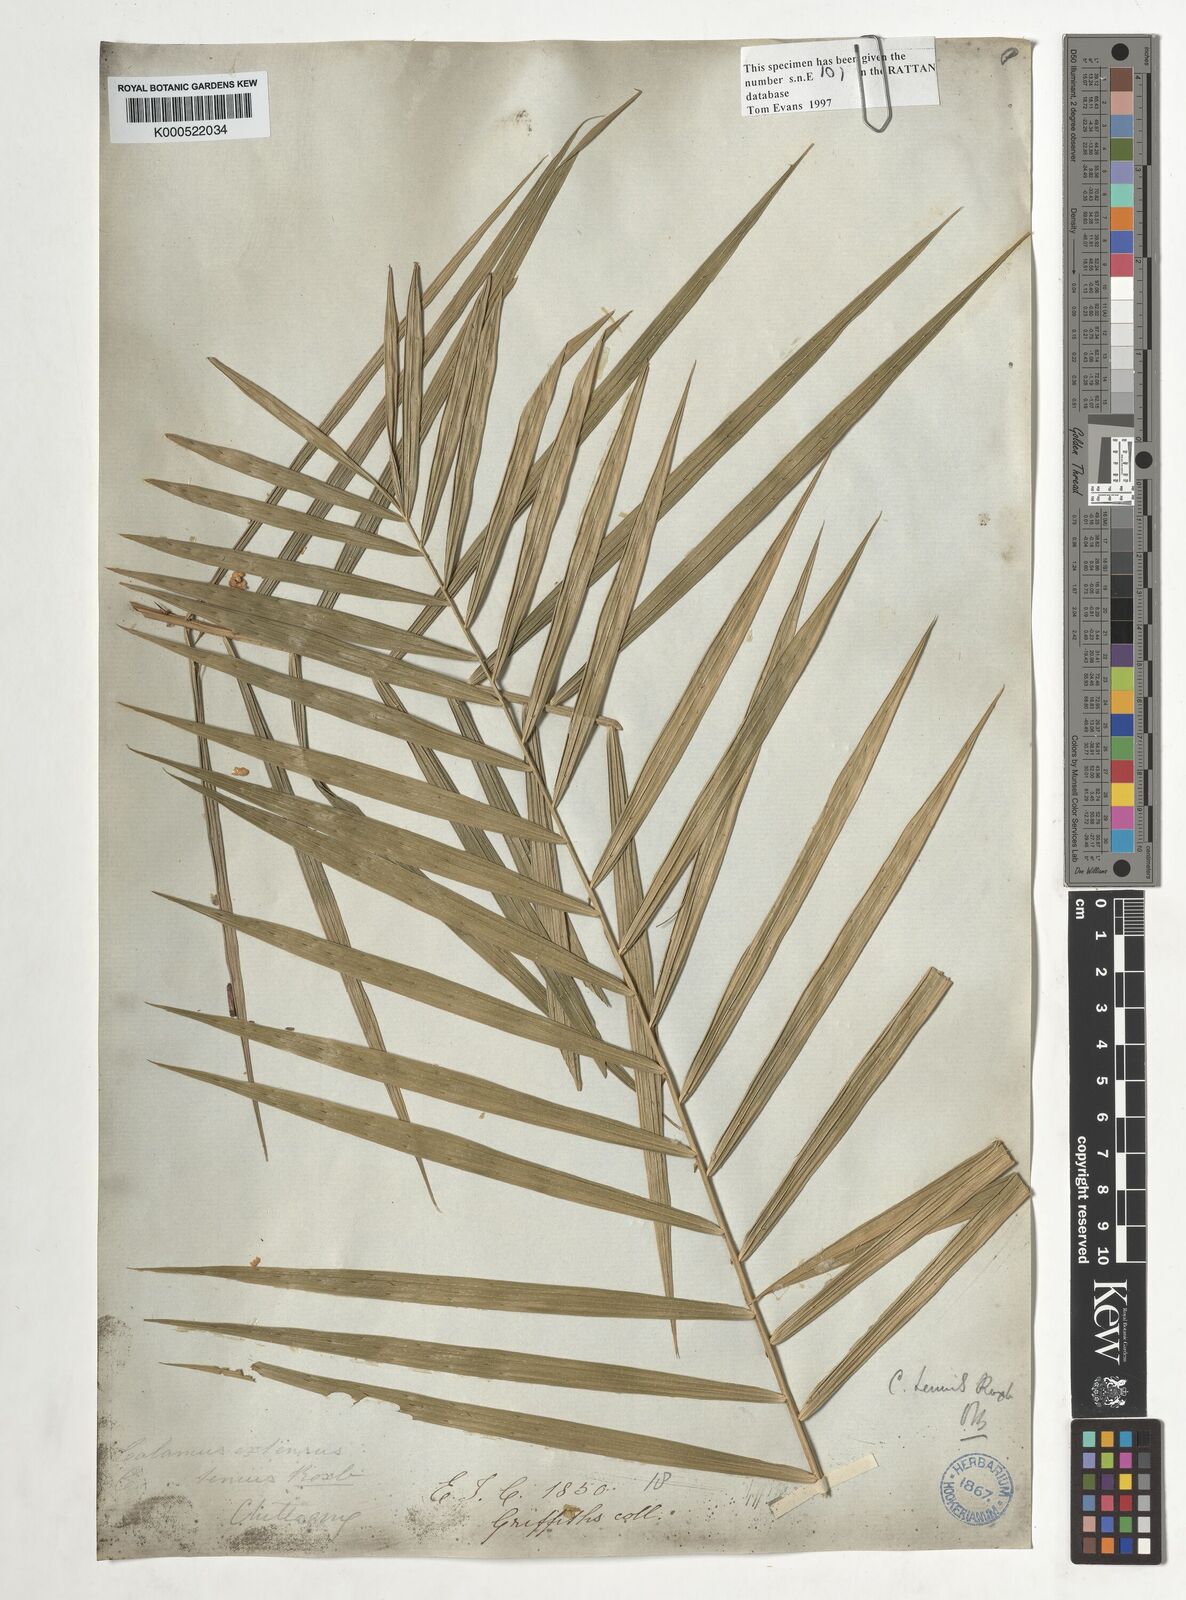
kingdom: Plantae
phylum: Tracheophyta
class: Liliopsida
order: Arecales
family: Arecaceae
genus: Calamus
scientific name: Calamus tenuis
